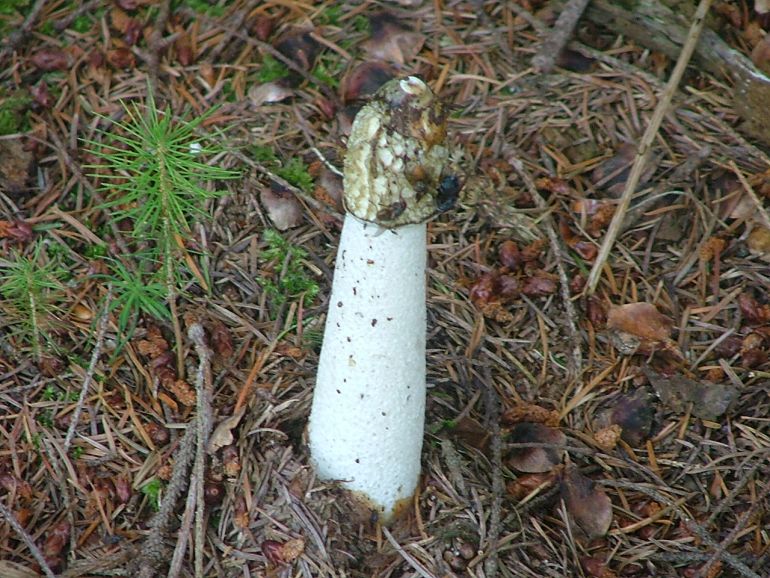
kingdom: Fungi
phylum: Basidiomycota
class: Agaricomycetes
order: Phallales
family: Phallaceae
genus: Phallus
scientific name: Phallus impudicus
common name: almindelig stinksvamp
